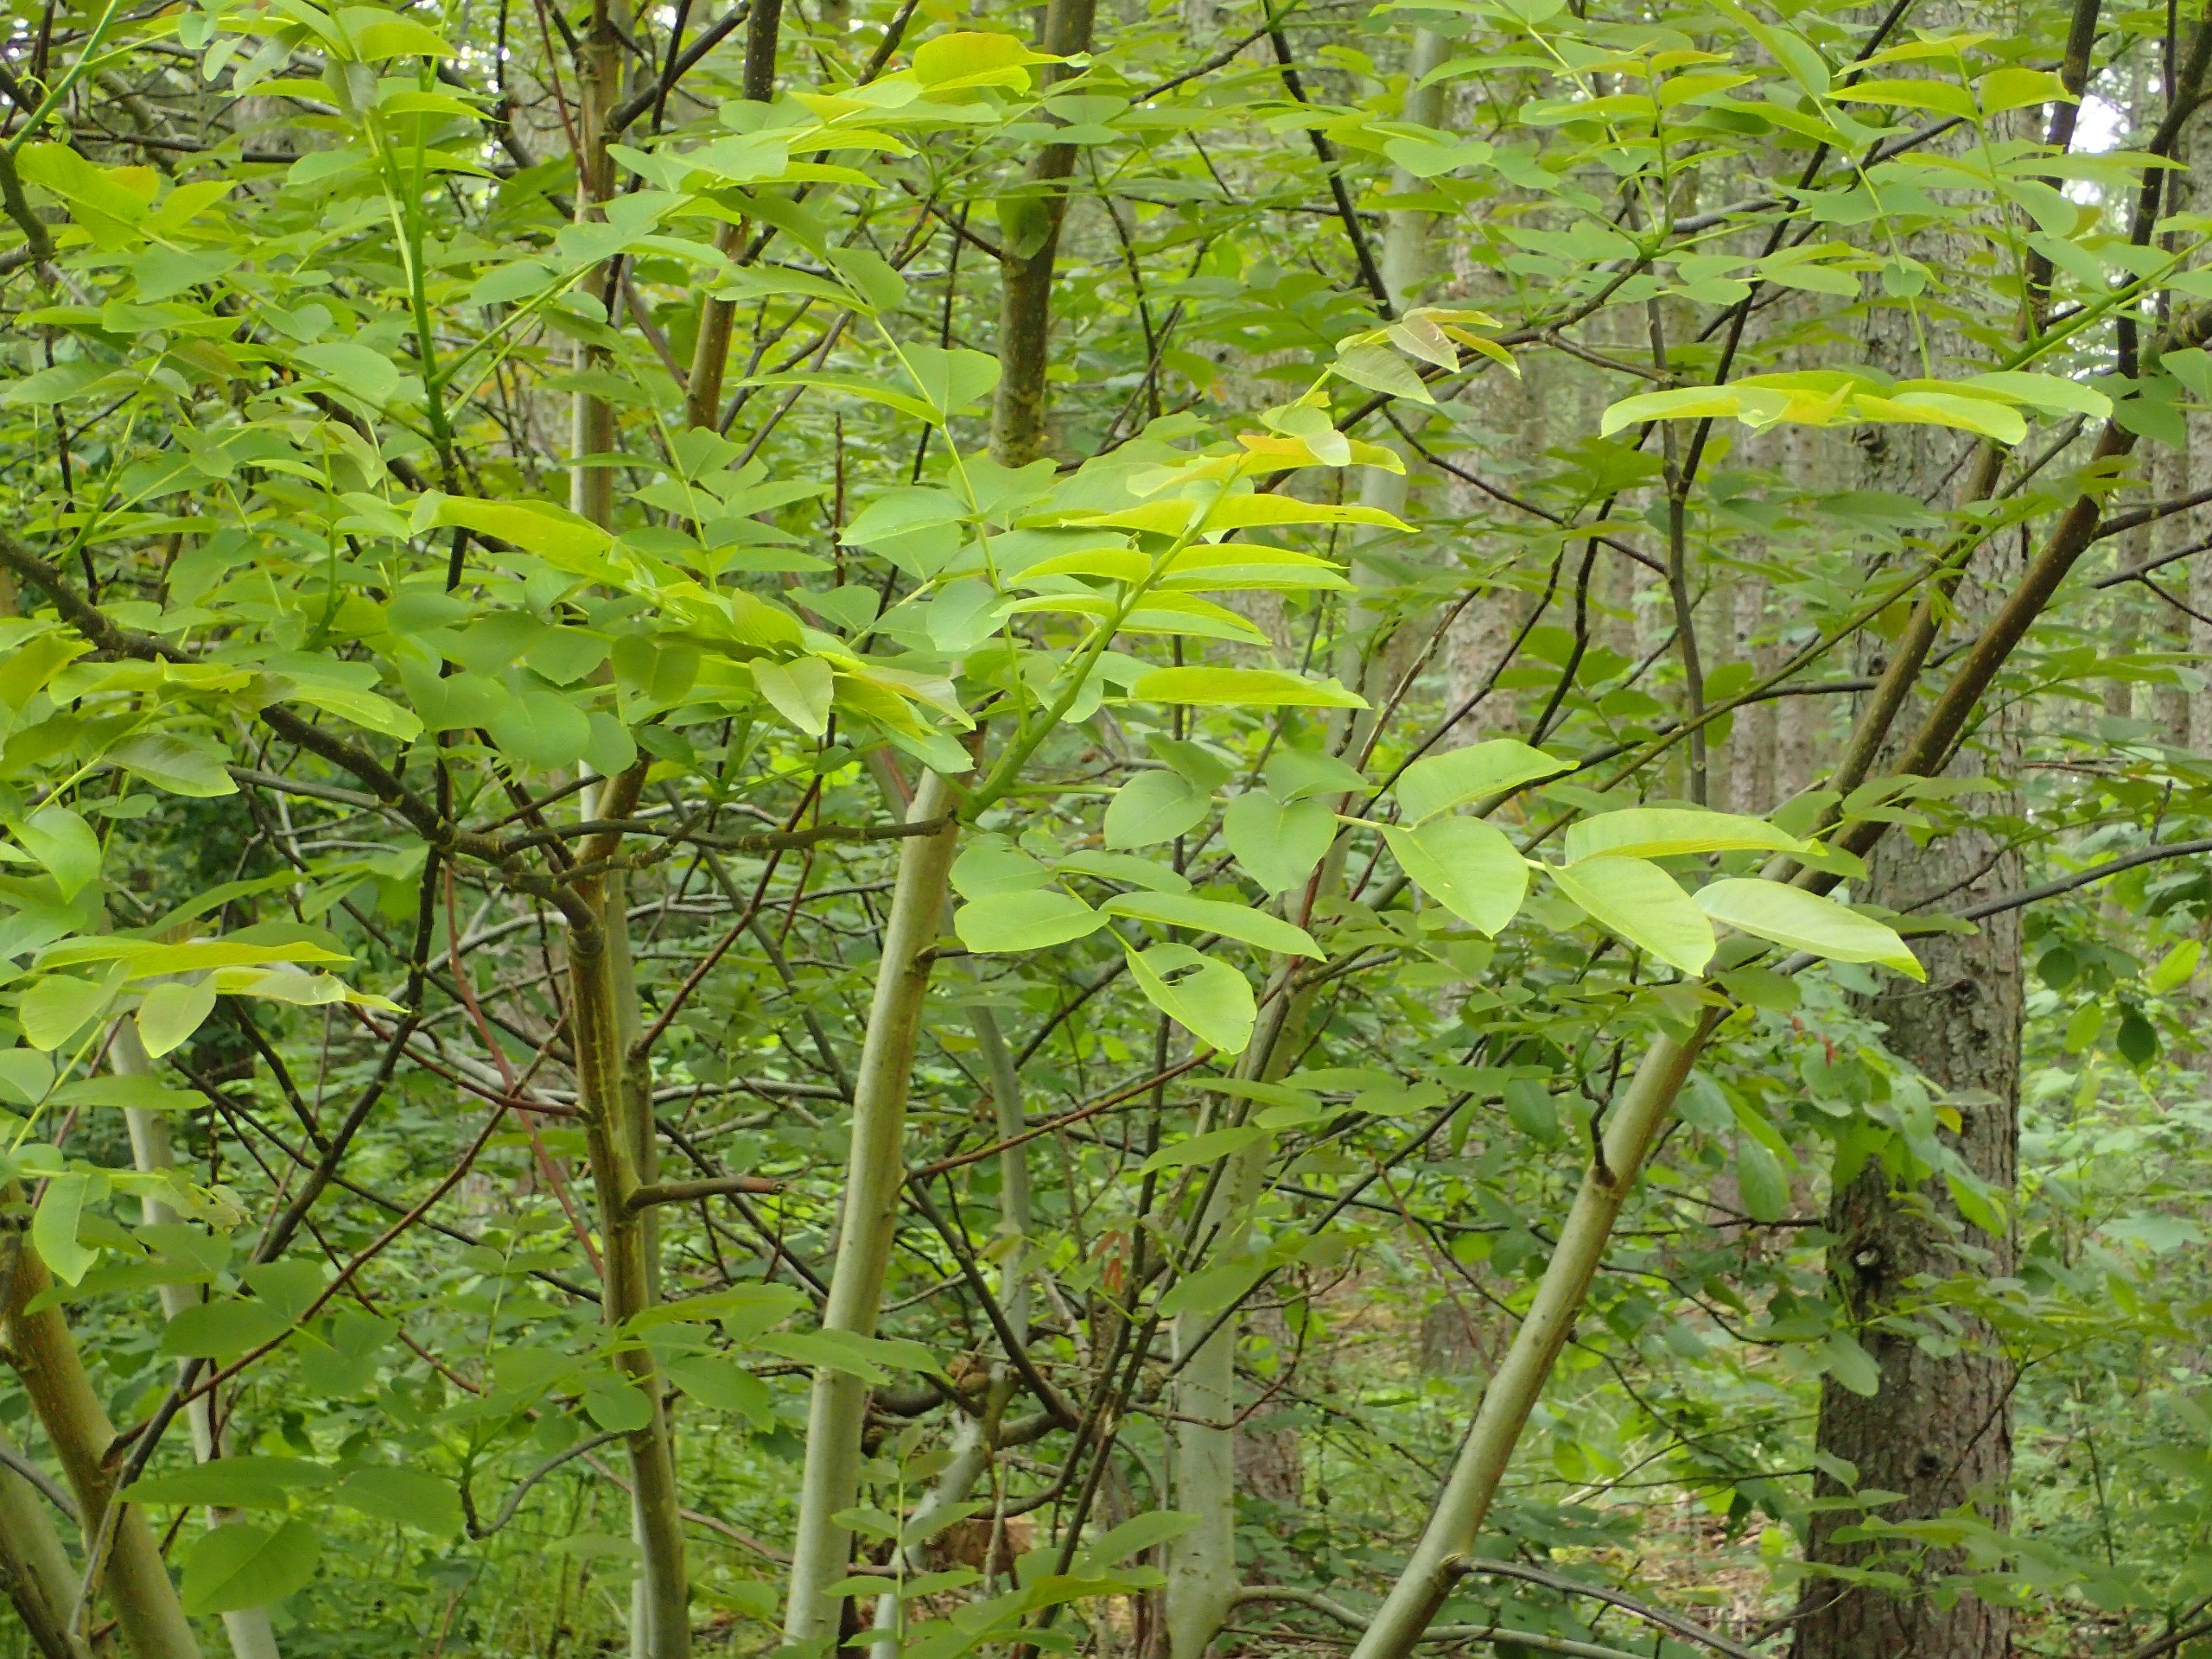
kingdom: Plantae
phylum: Tracheophyta
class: Magnoliopsida
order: Fagales
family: Juglandaceae
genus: Juglans
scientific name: Juglans regia
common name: Almindelig valnød
